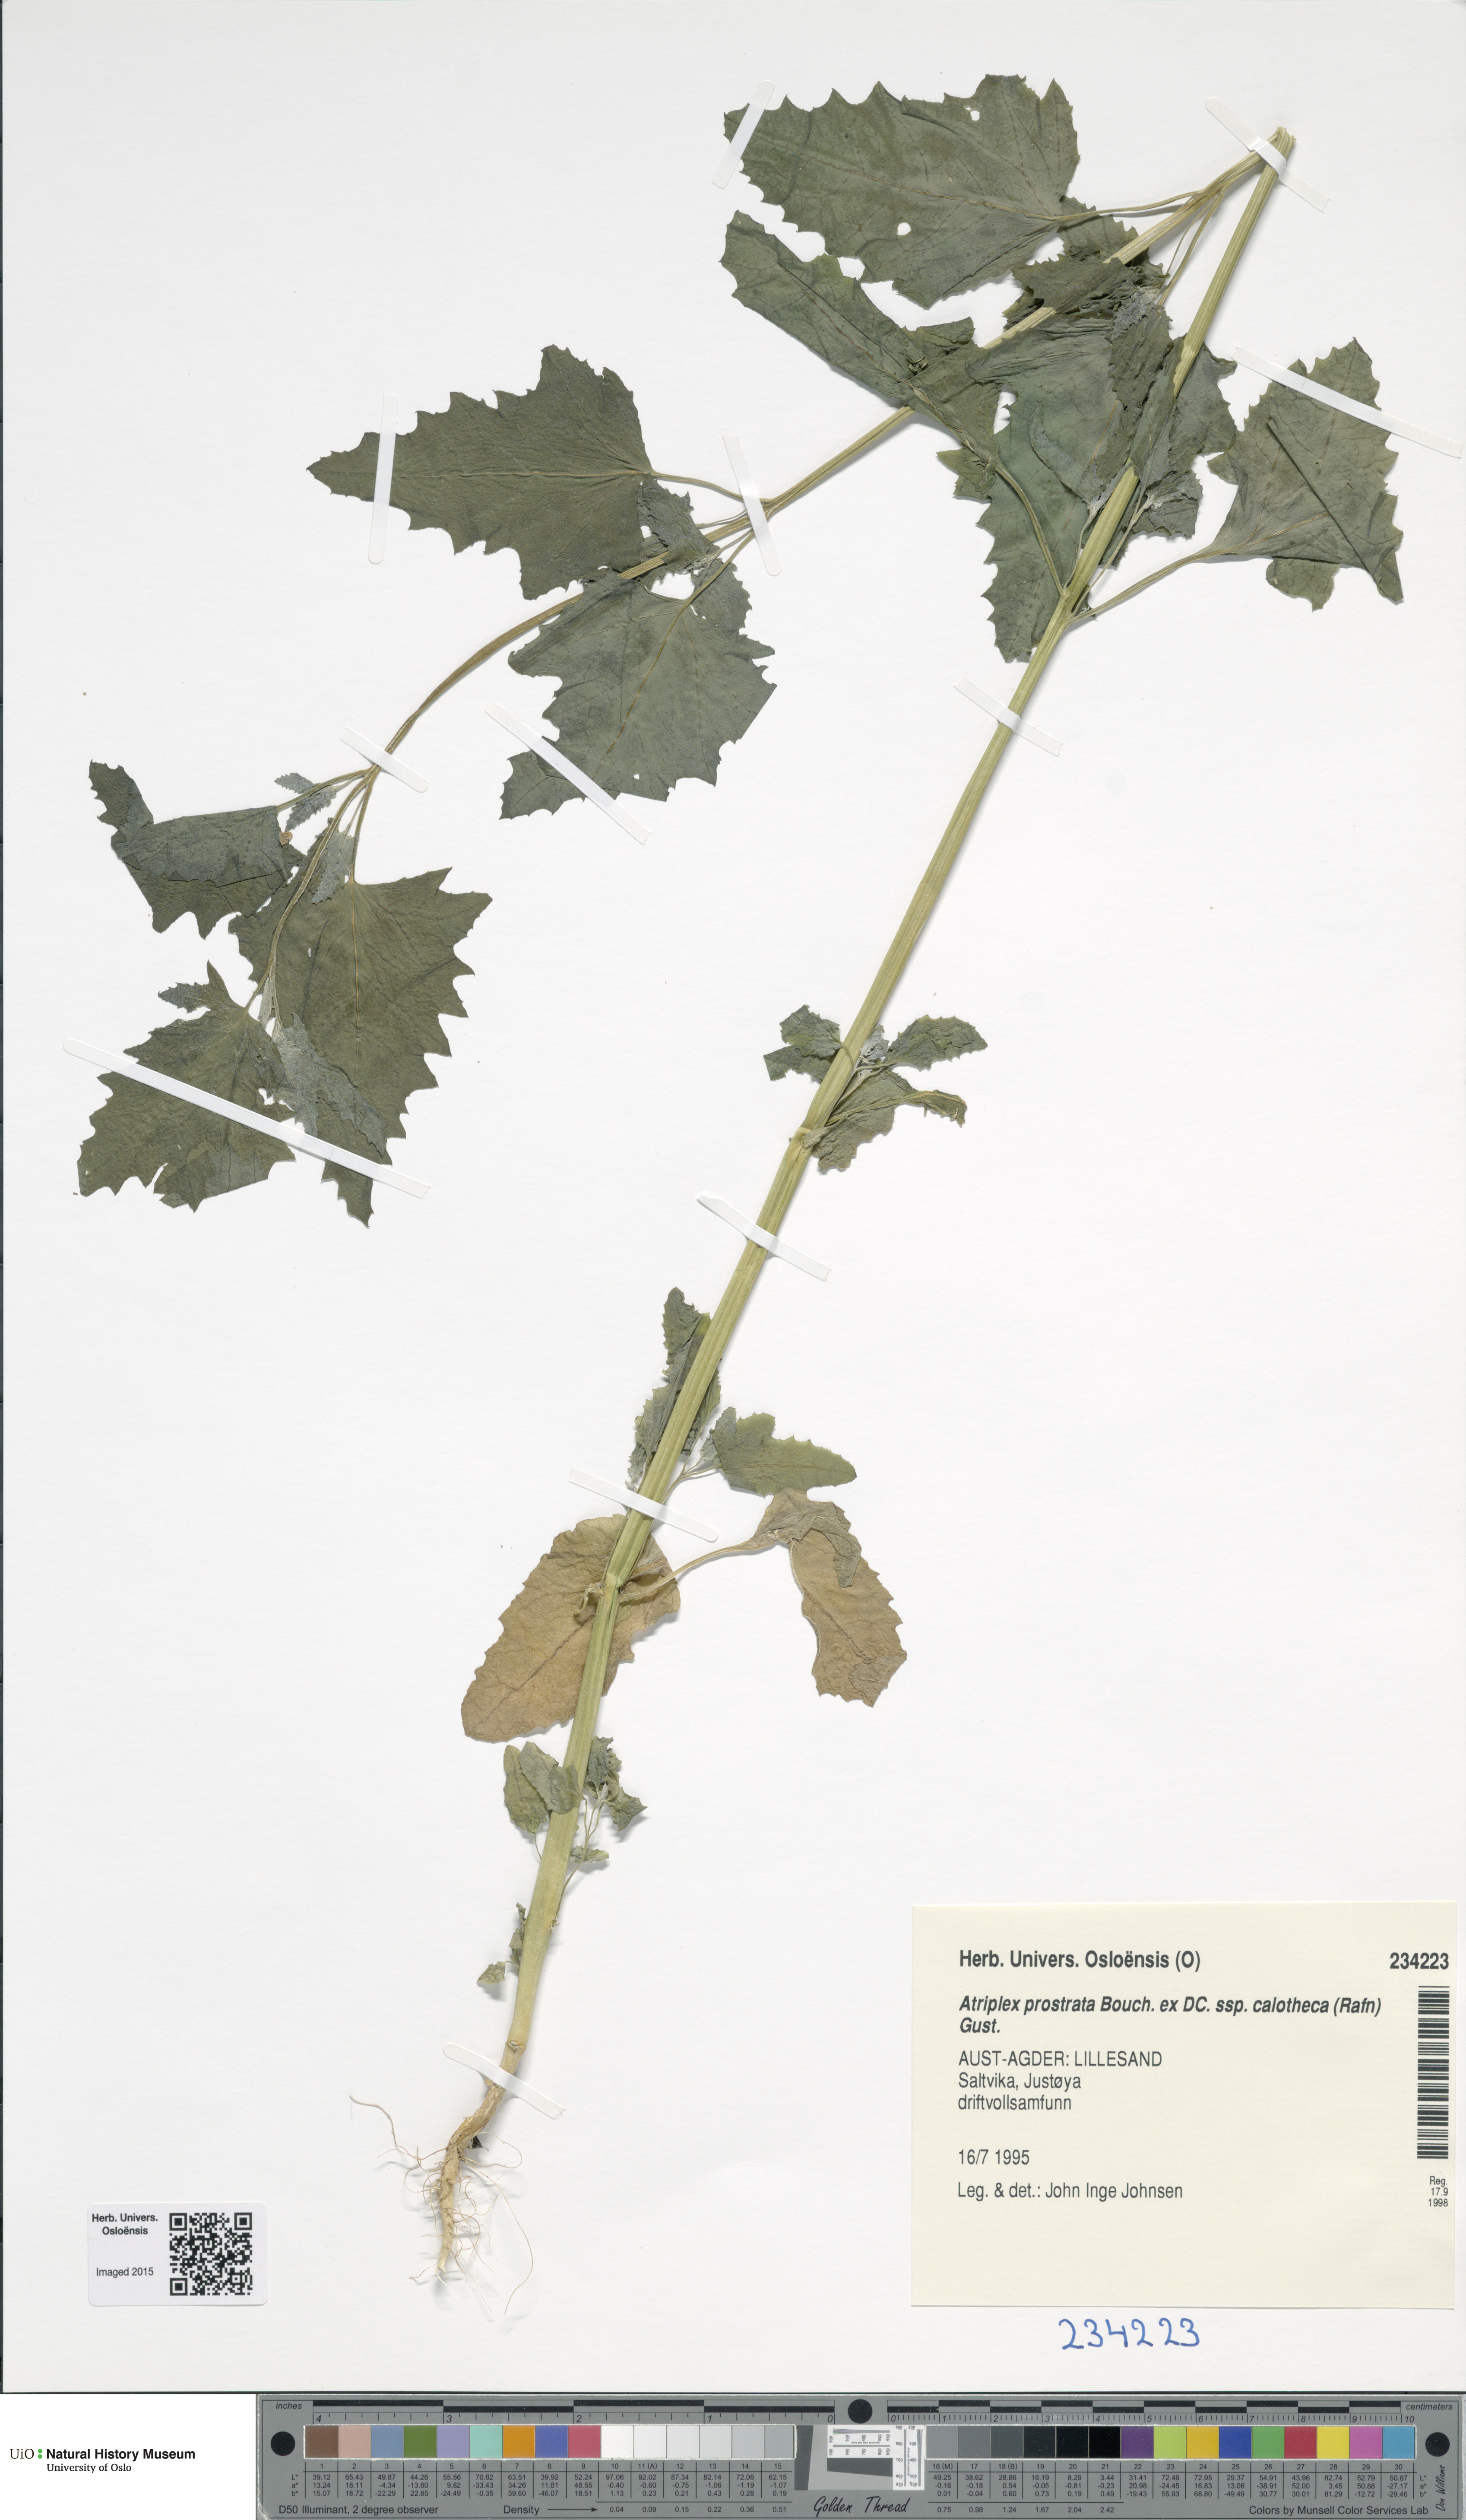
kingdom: Plantae
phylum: Tracheophyta
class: Magnoliopsida
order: Caryophyllales
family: Amaranthaceae
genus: Atriplex
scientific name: Atriplex calotheca
